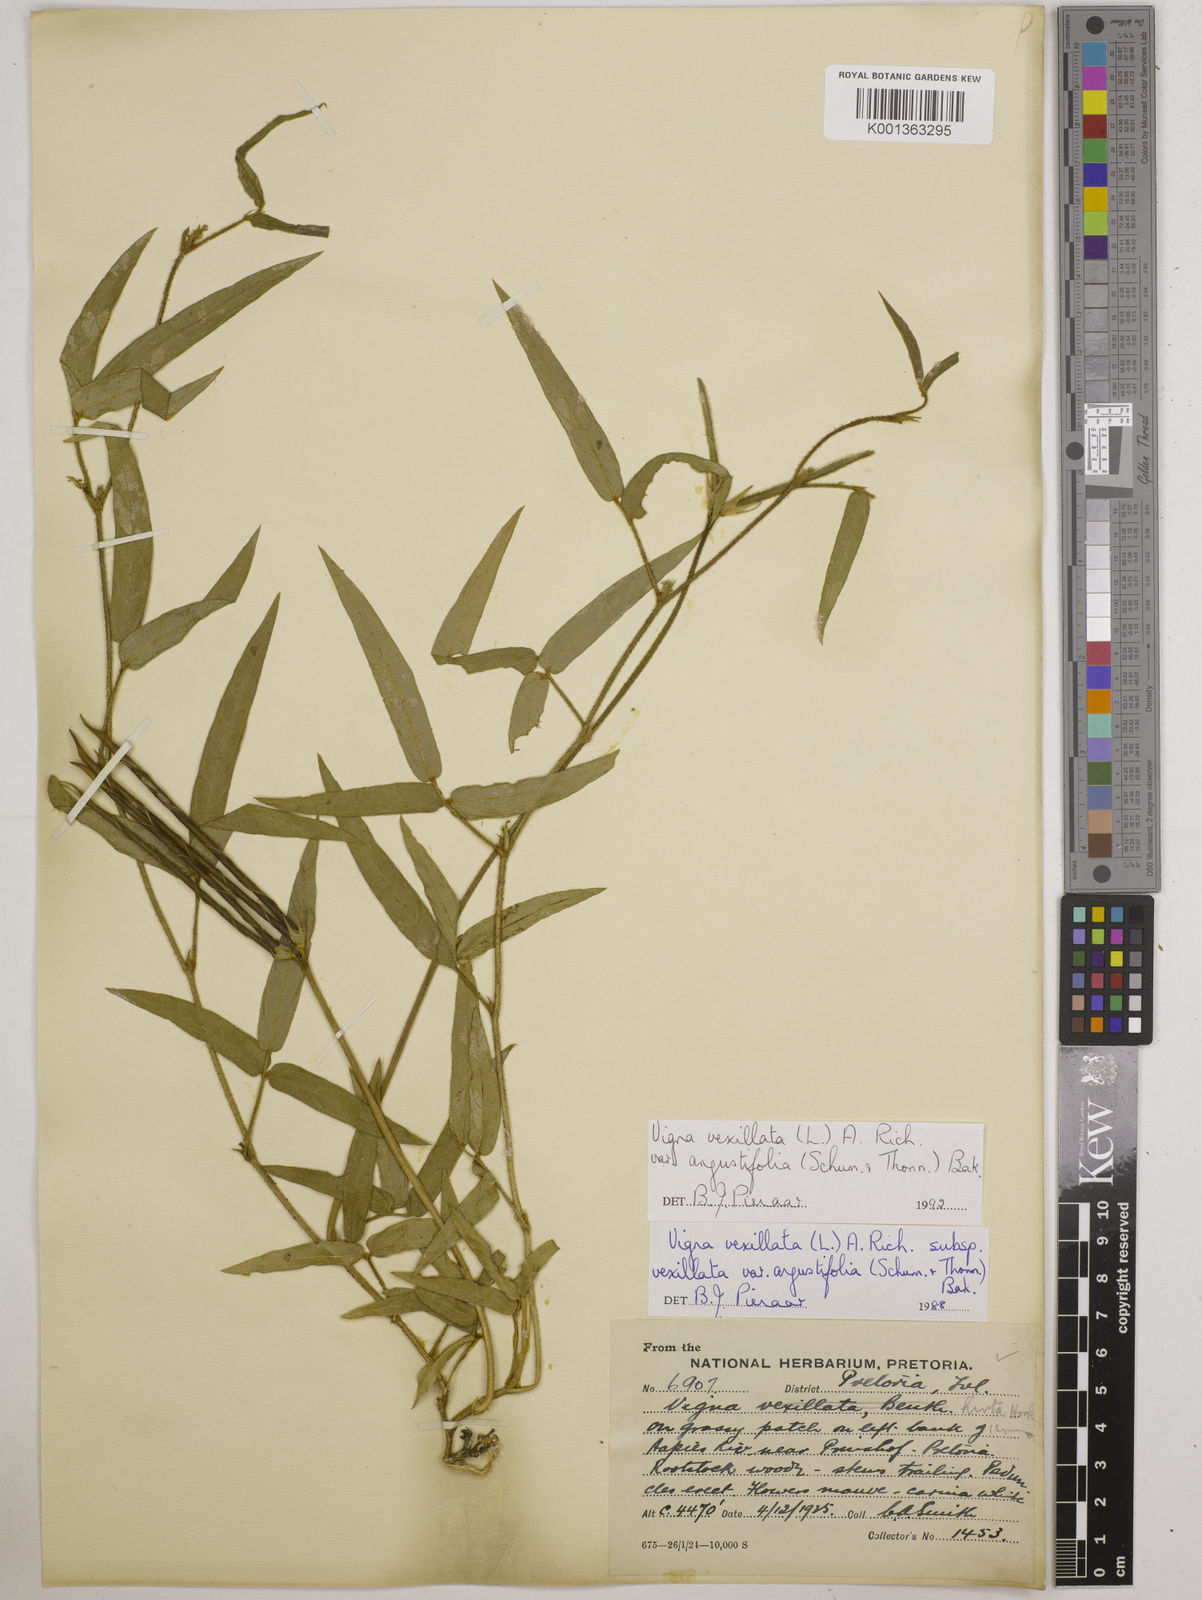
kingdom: Plantae
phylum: Tracheophyta
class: Magnoliopsida
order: Fabales
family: Fabaceae
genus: Vigna
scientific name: Vigna vexillata
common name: Zombi pea
